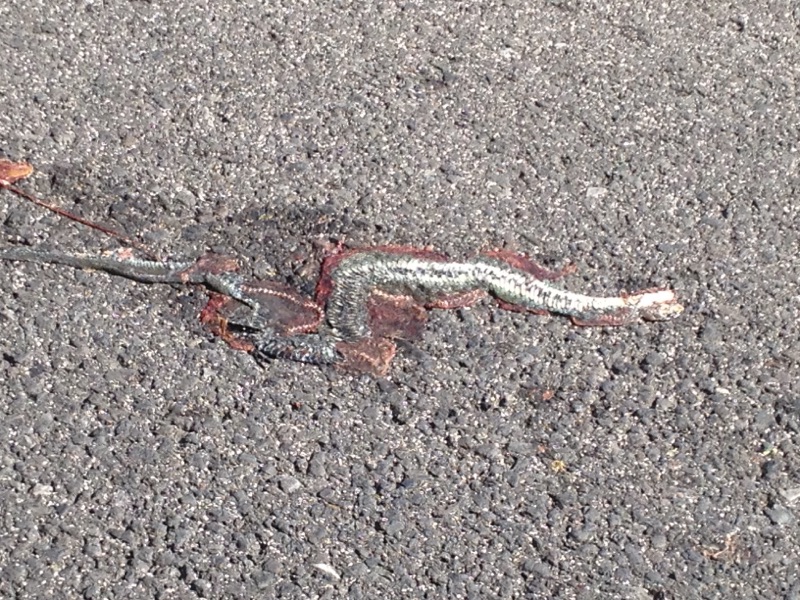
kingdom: Animalia
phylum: Chordata
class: Squamata
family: Colubridae
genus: Natrix
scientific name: Natrix natrix
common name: Grass snake
